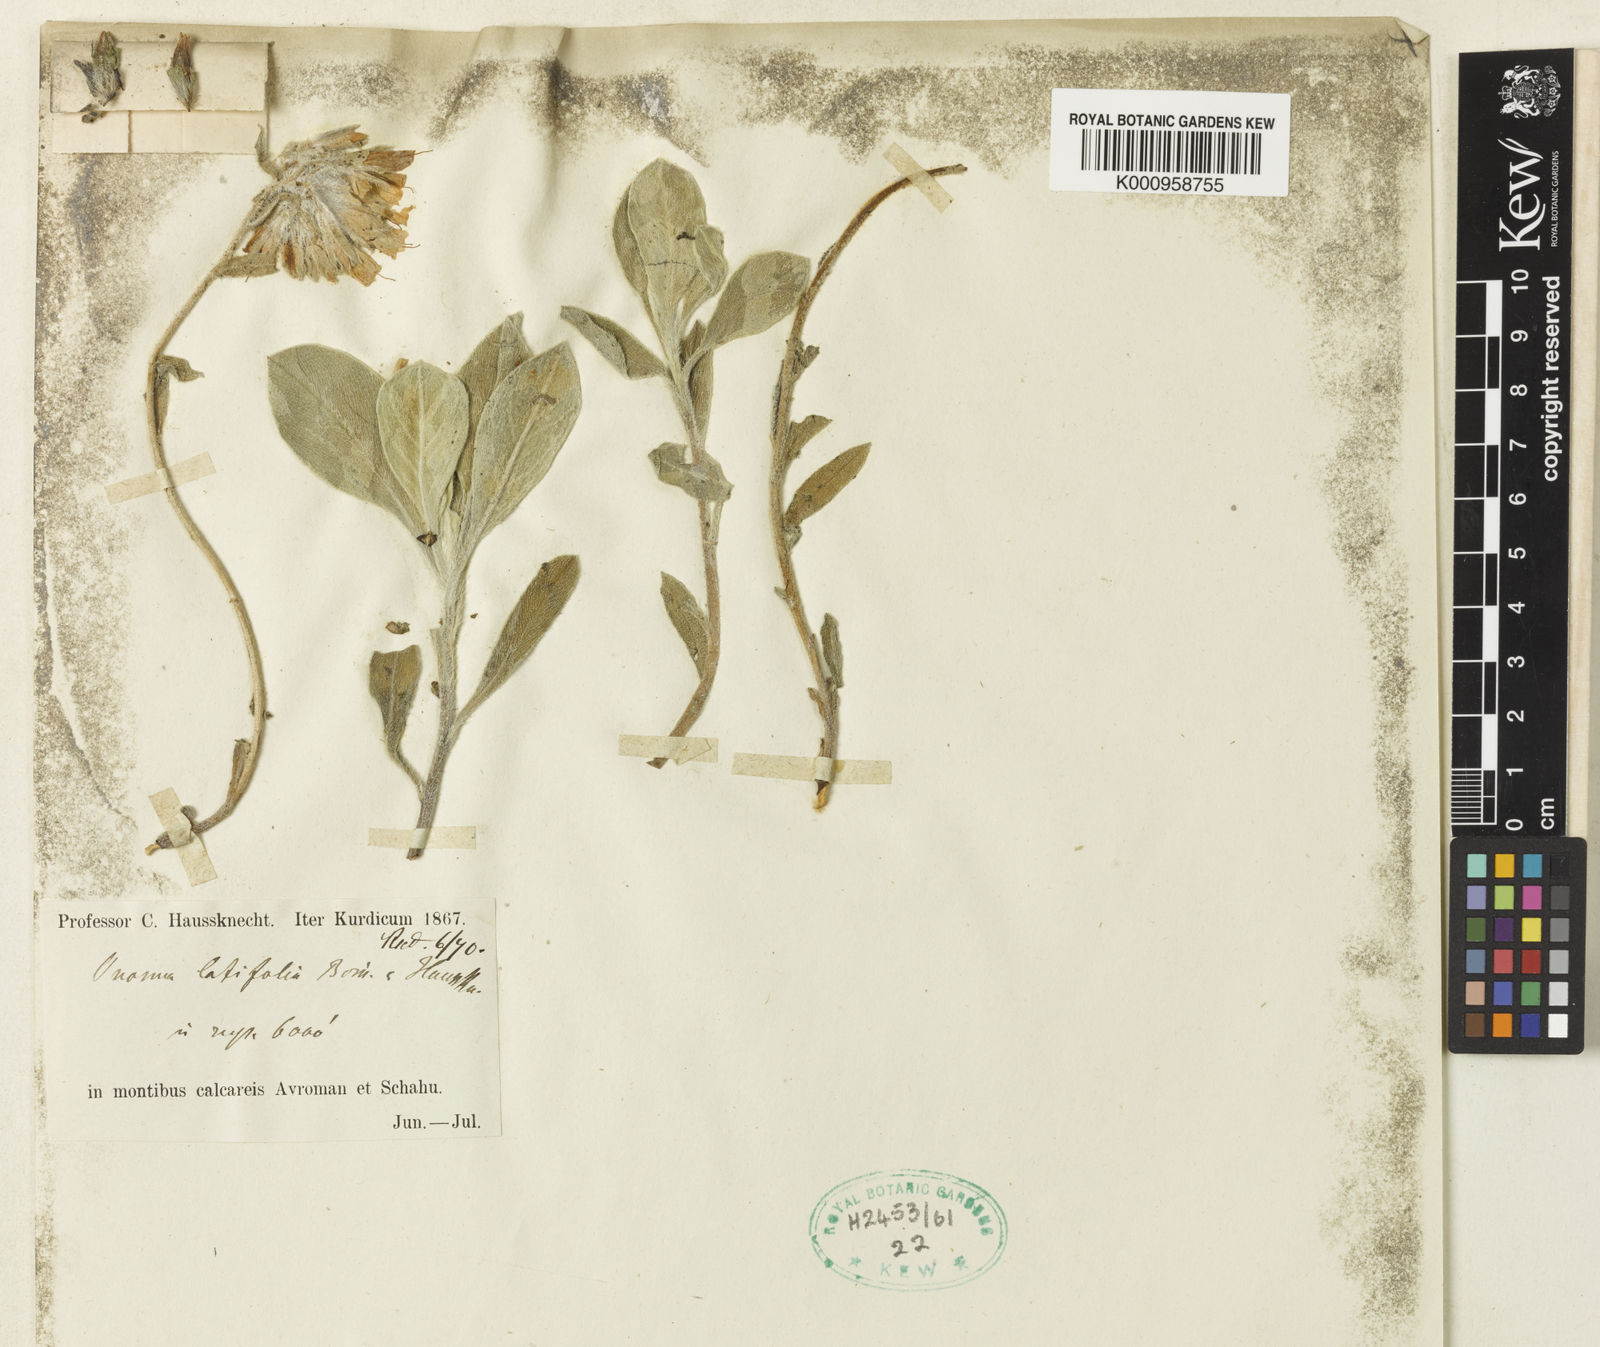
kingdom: Plantae
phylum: Tracheophyta
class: Magnoliopsida
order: Boraginales
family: Boraginaceae
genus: Onosma
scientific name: Onosma latifolia
